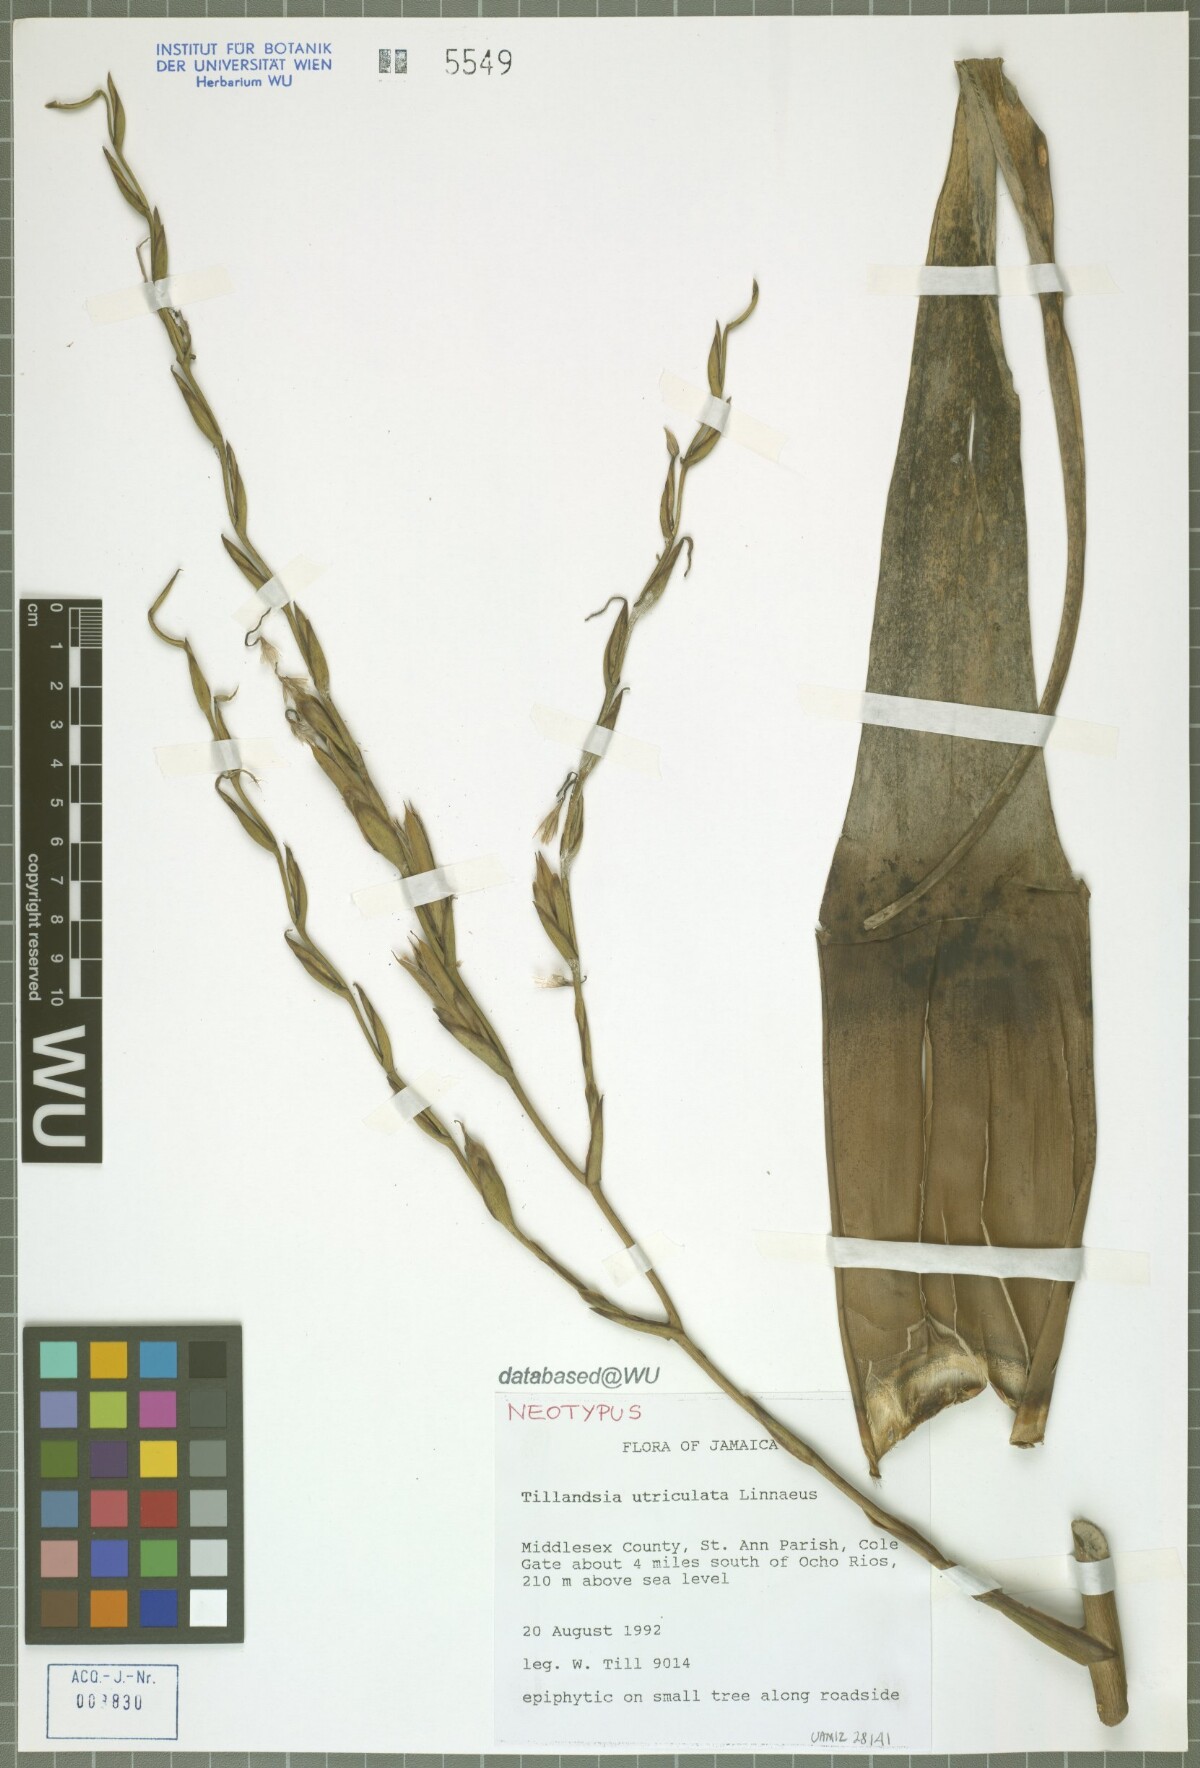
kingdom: Plantae
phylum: Tracheophyta
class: Liliopsida
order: Poales
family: Bromeliaceae
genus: Tillandsia
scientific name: Tillandsia utriculata
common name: Wild pine
